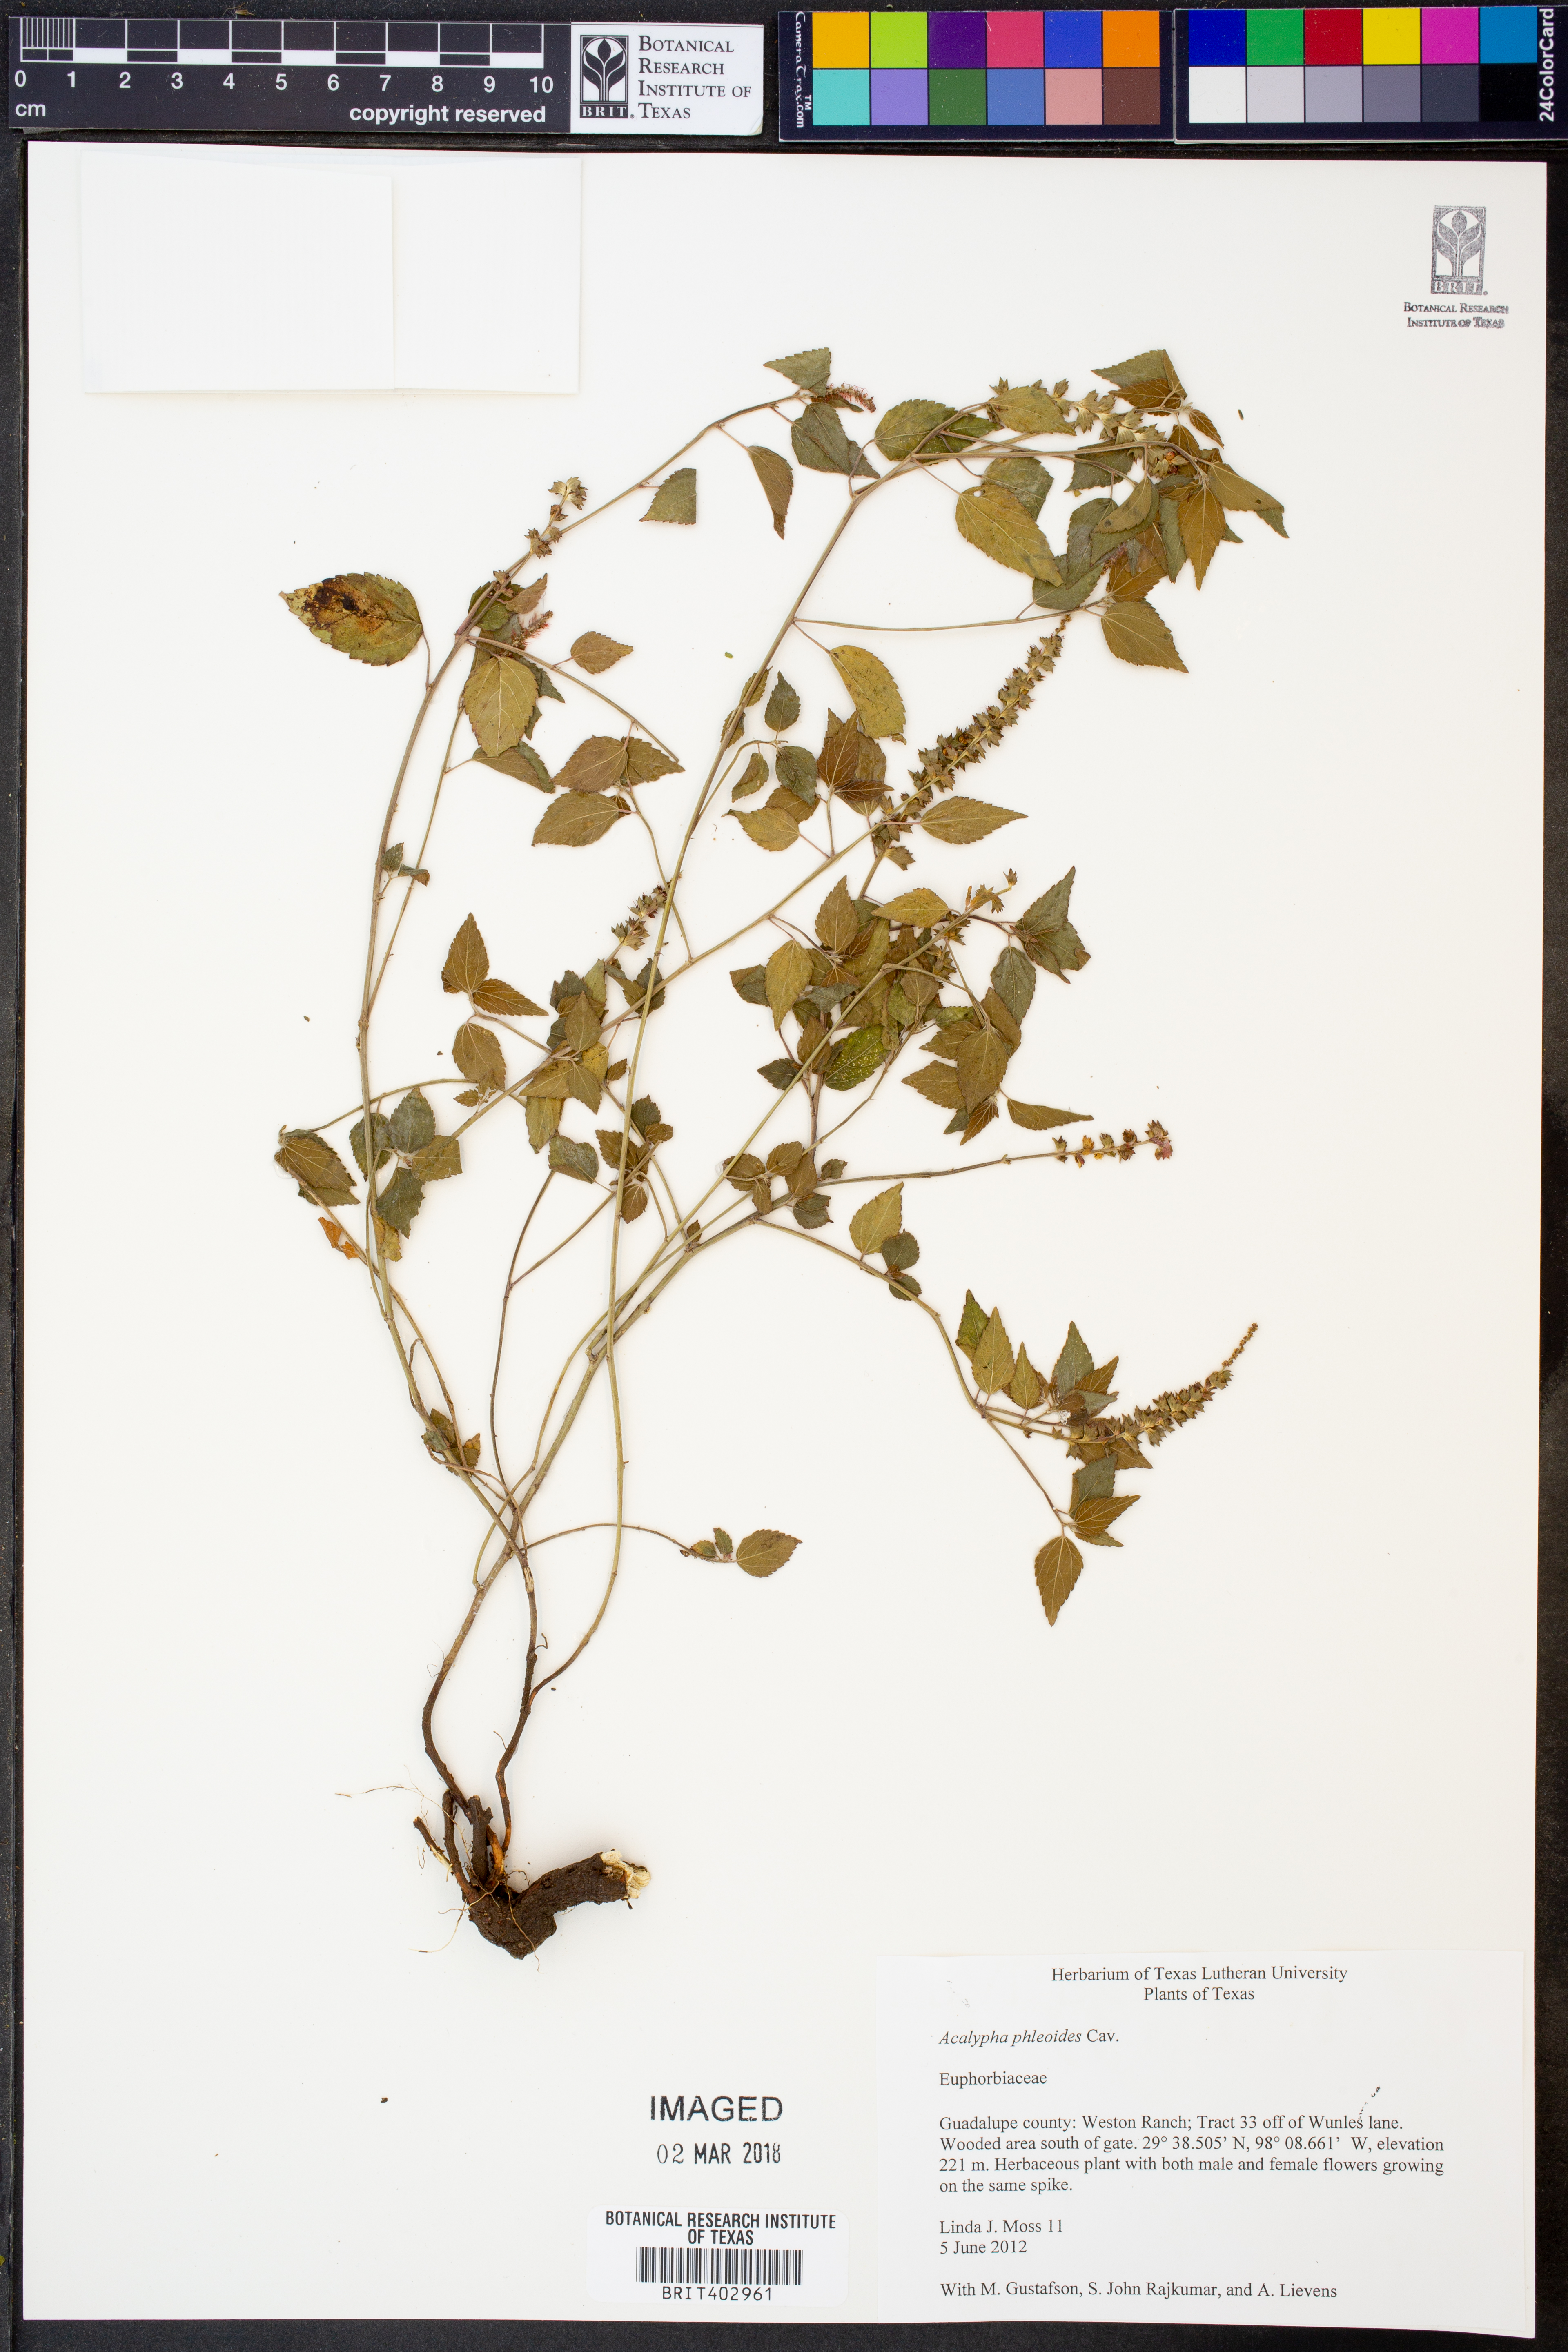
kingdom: Plantae
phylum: Tracheophyta
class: Magnoliopsida
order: Malpighiales
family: Euphorbiaceae
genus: Acalypha
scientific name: Acalypha phleoides
